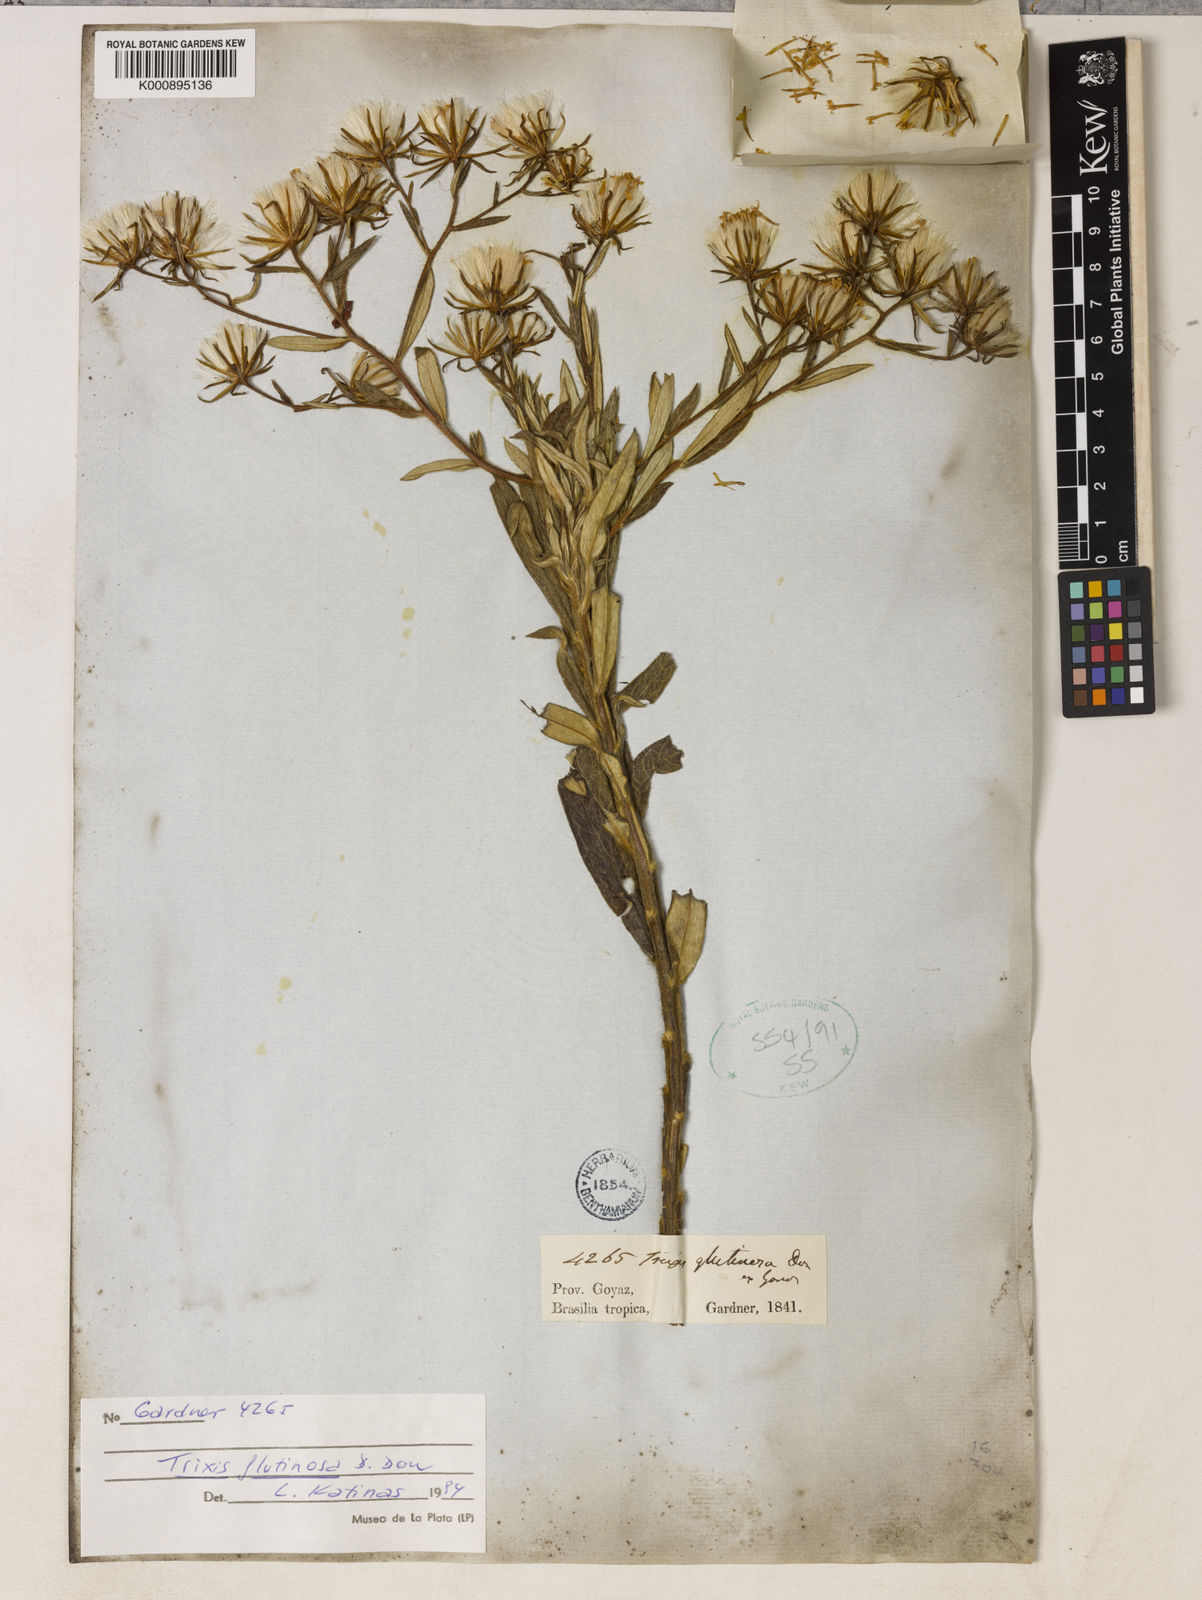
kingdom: Plantae
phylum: Tracheophyta
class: Magnoliopsida
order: Asterales
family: Asteraceae
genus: Trixis
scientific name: Trixis glutinosa
